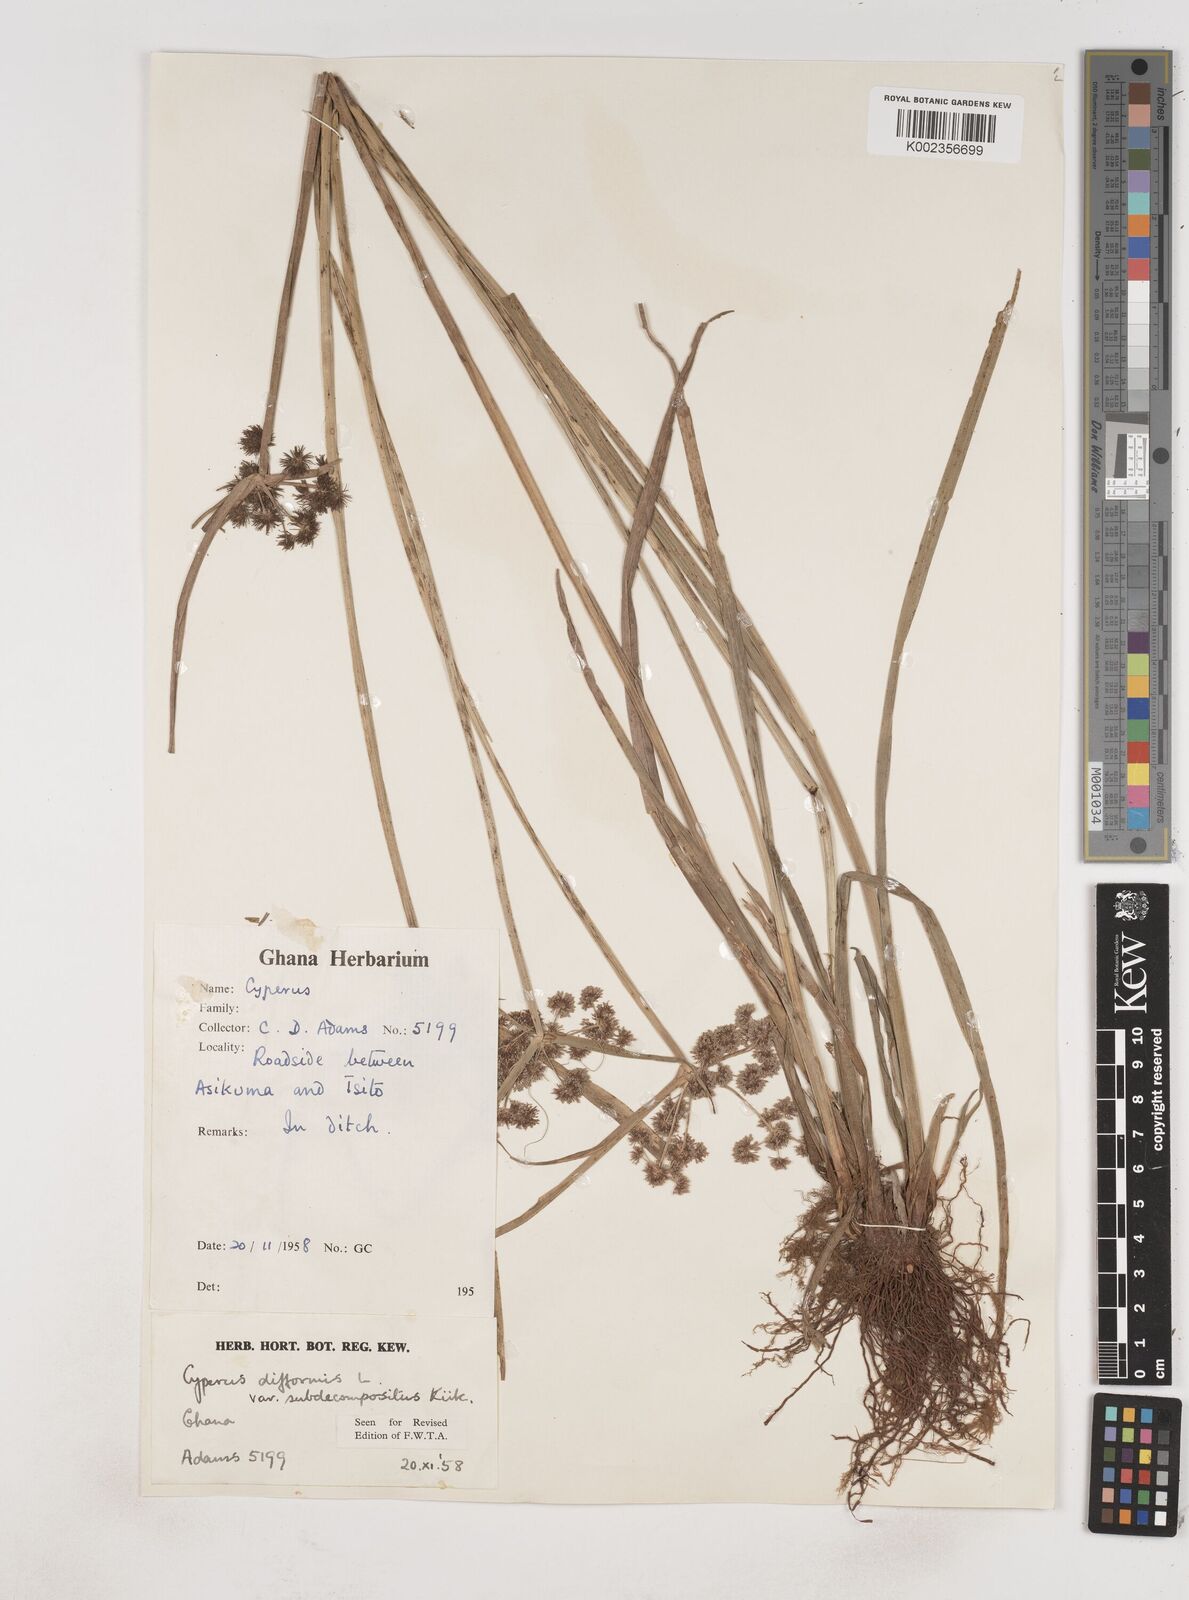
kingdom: Plantae
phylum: Tracheophyta
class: Liliopsida
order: Poales
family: Cyperaceae
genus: Cyperus
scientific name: Cyperus difformis
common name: Variable flatsedge
